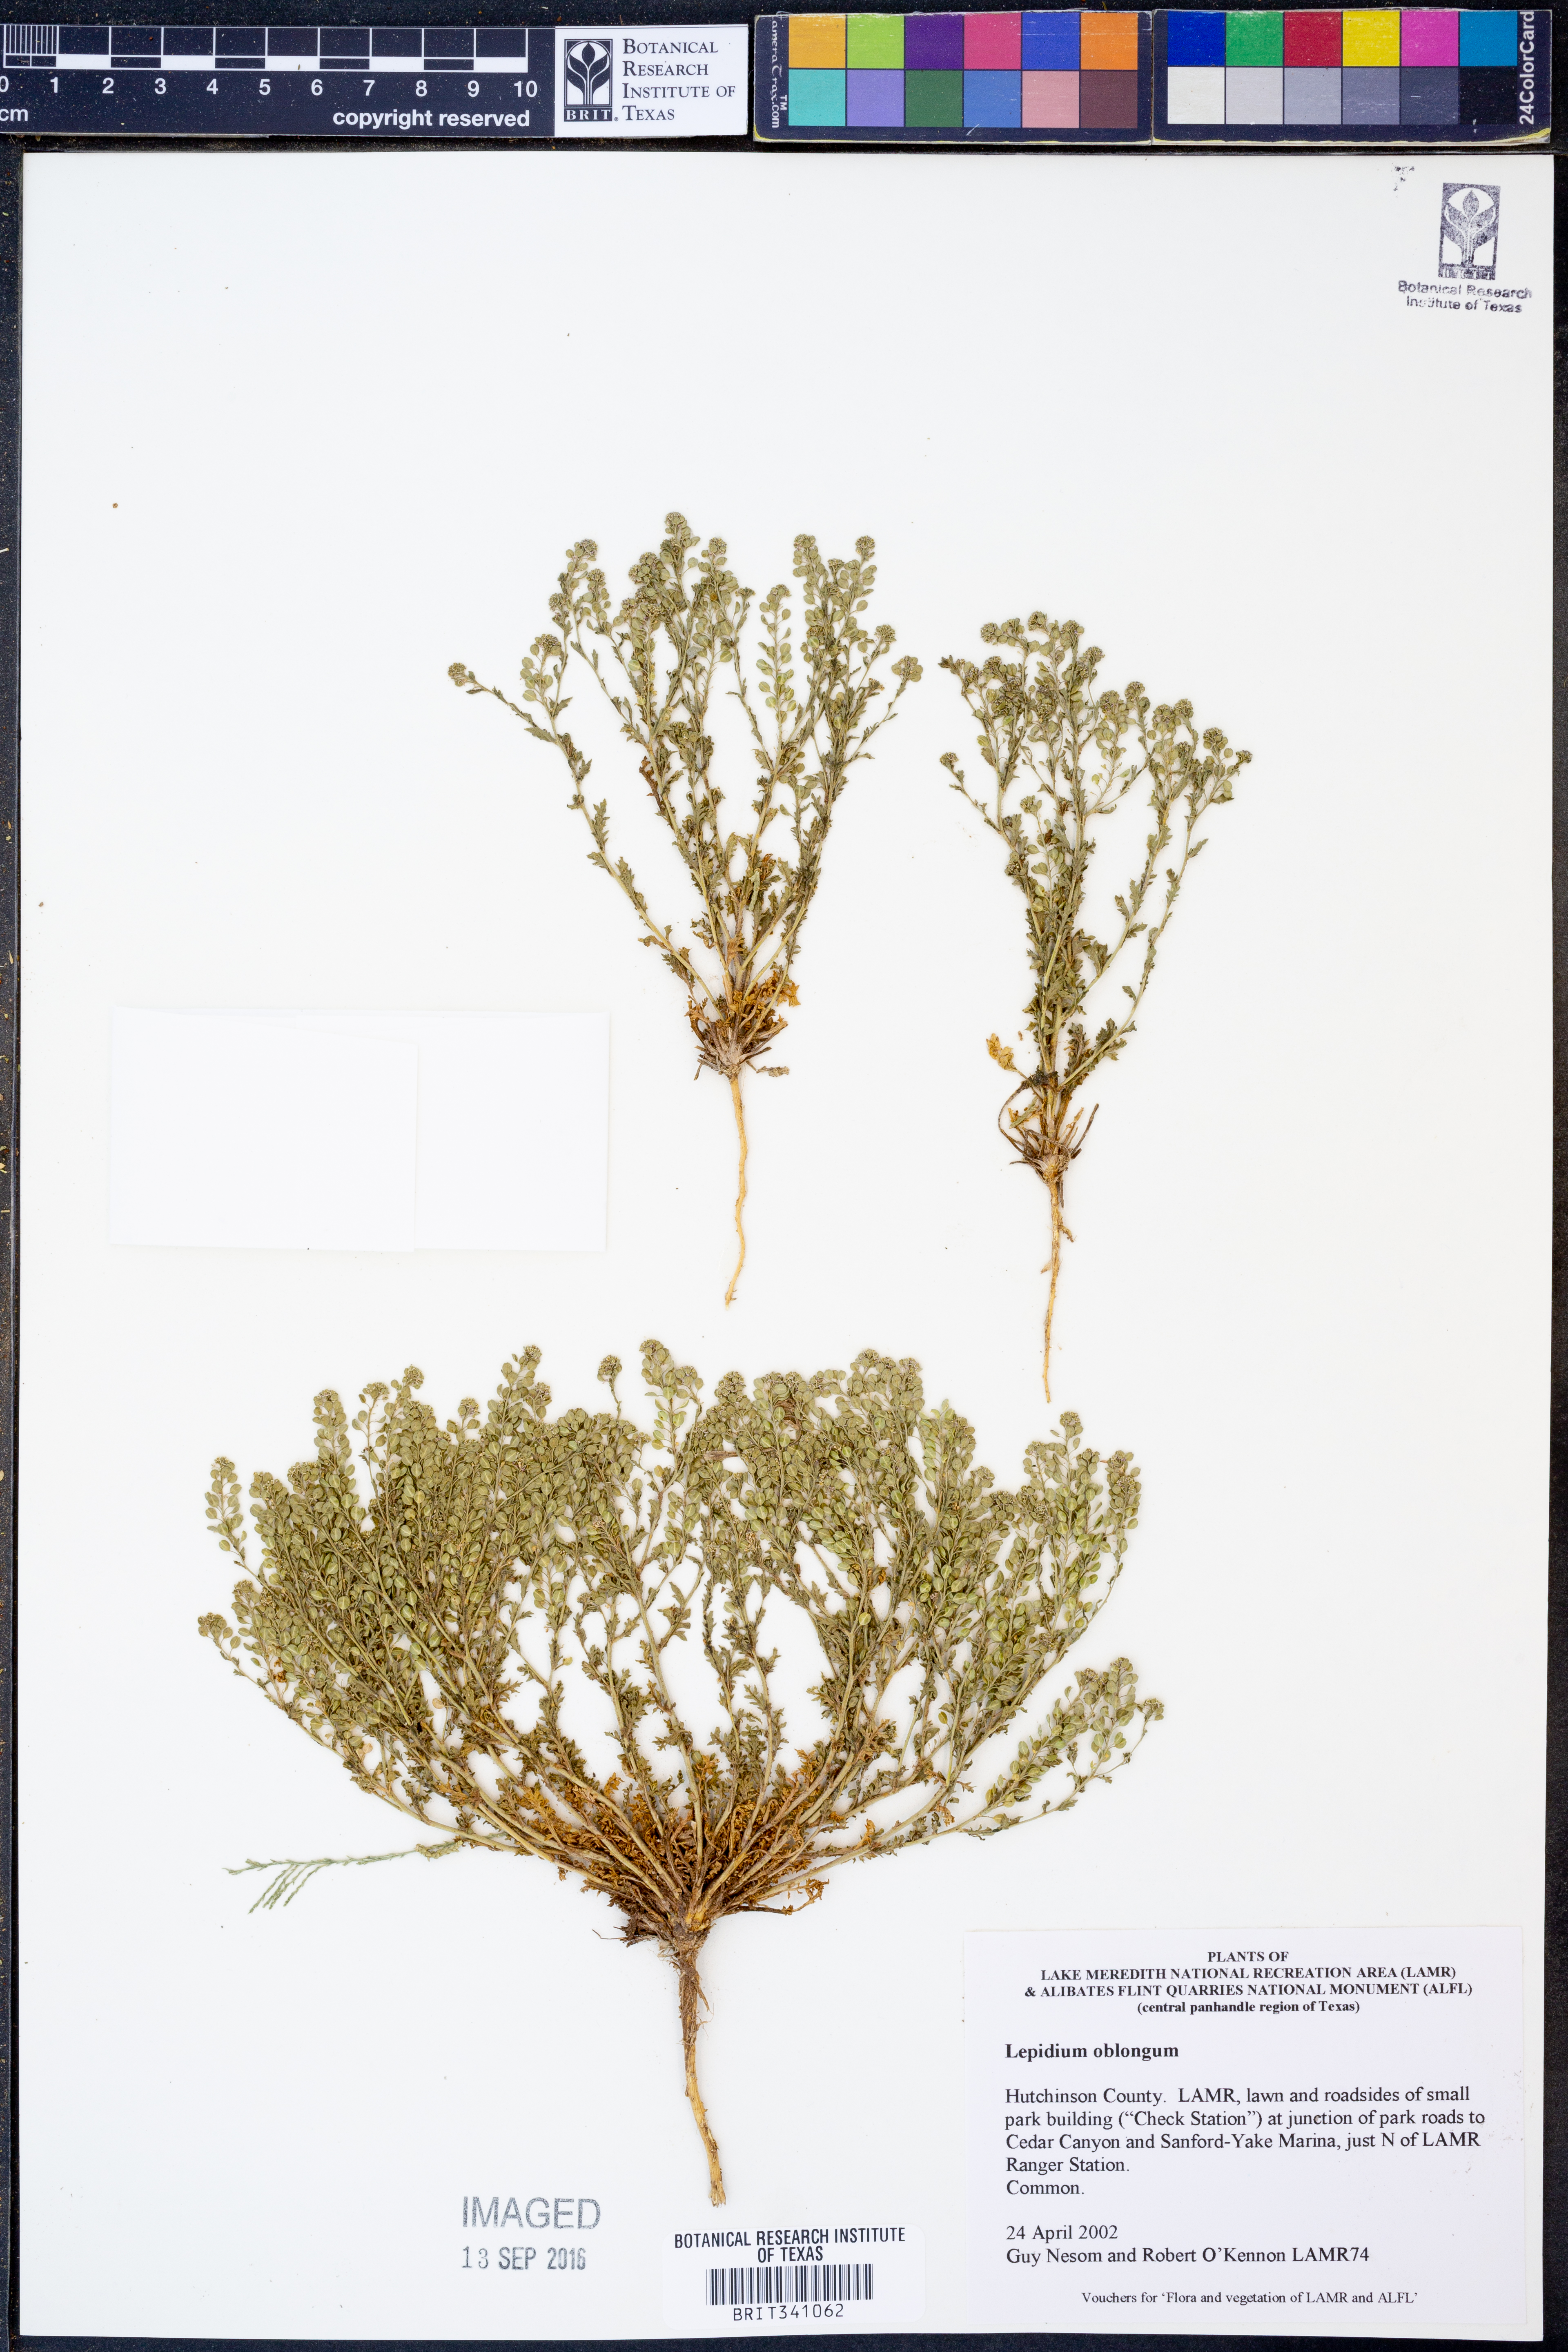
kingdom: Plantae
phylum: Tracheophyta
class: Magnoliopsida
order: Brassicales
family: Brassicaceae
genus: Lepidium
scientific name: Lepidium oblongum
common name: Veiny pepperweed
